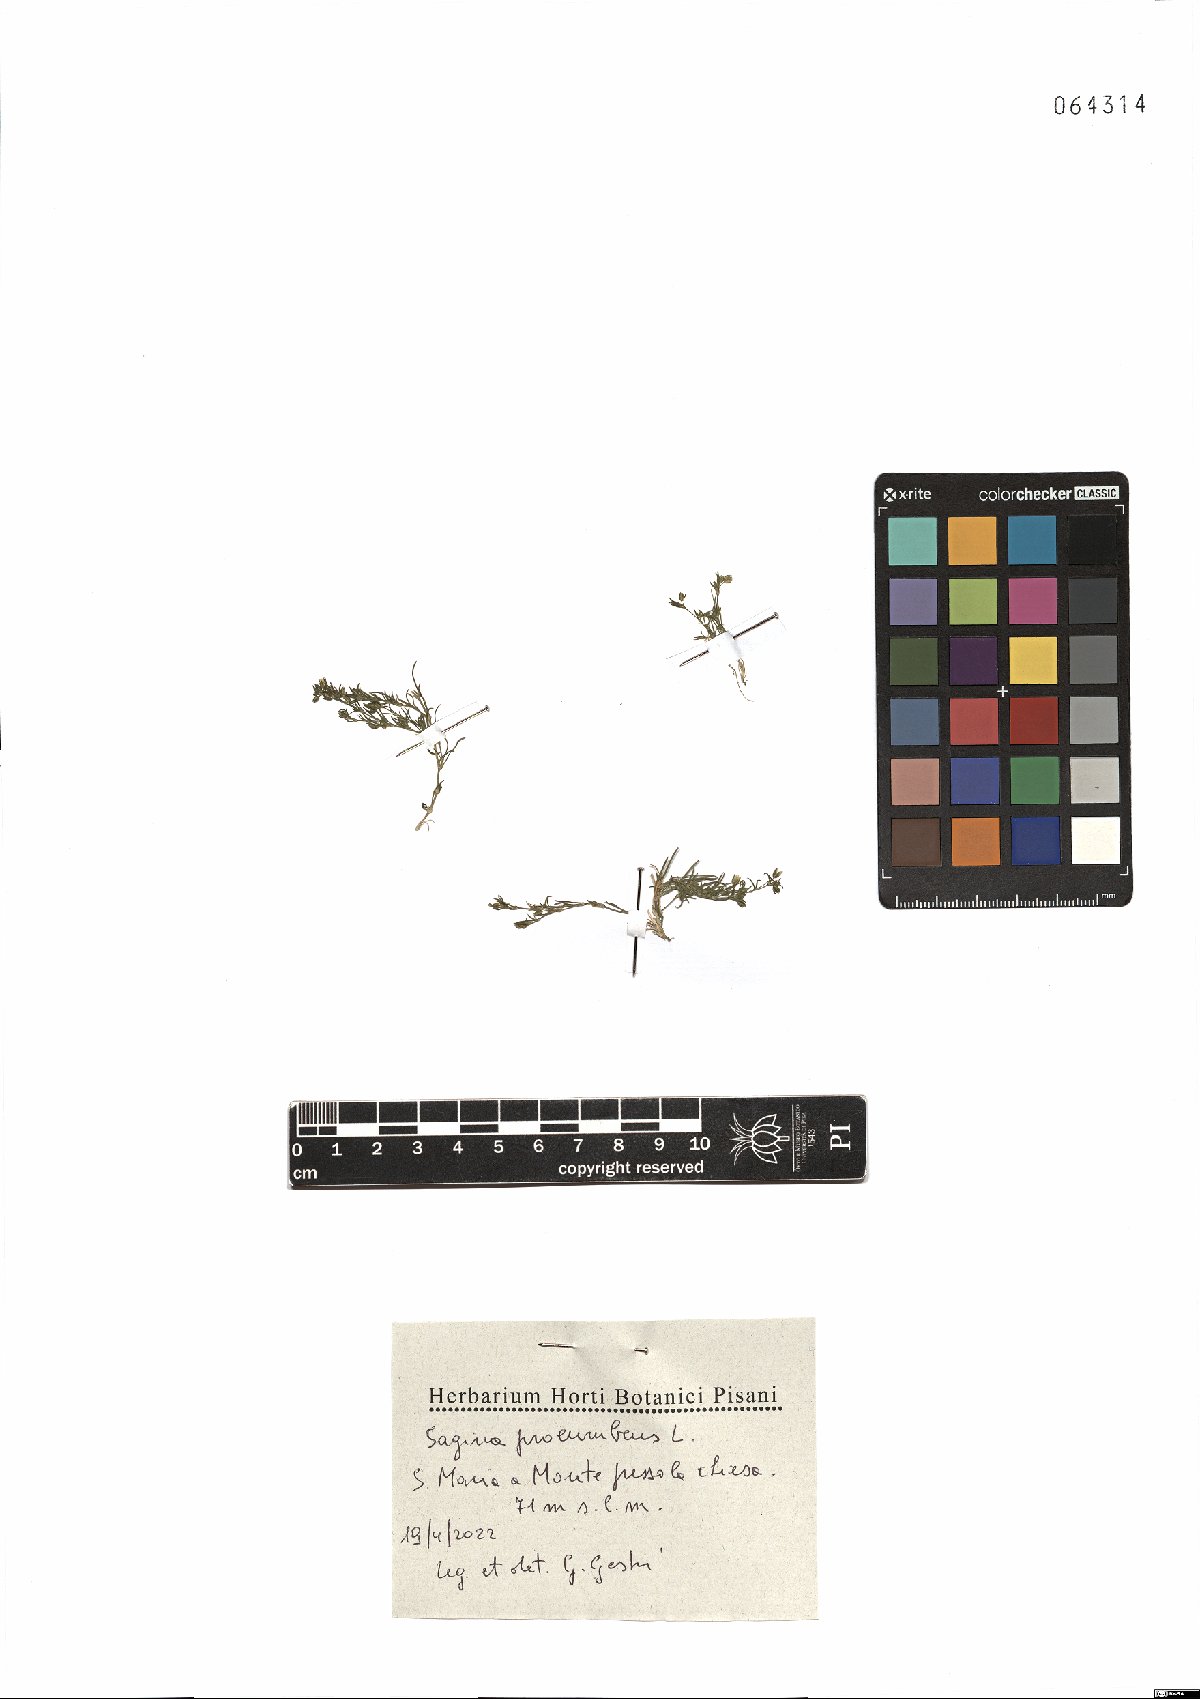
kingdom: Plantae
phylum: Tracheophyta
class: Magnoliopsida
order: Caryophyllales
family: Caryophyllaceae
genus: Sagina
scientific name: Sagina procumbens
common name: Procumbent pearlwort
